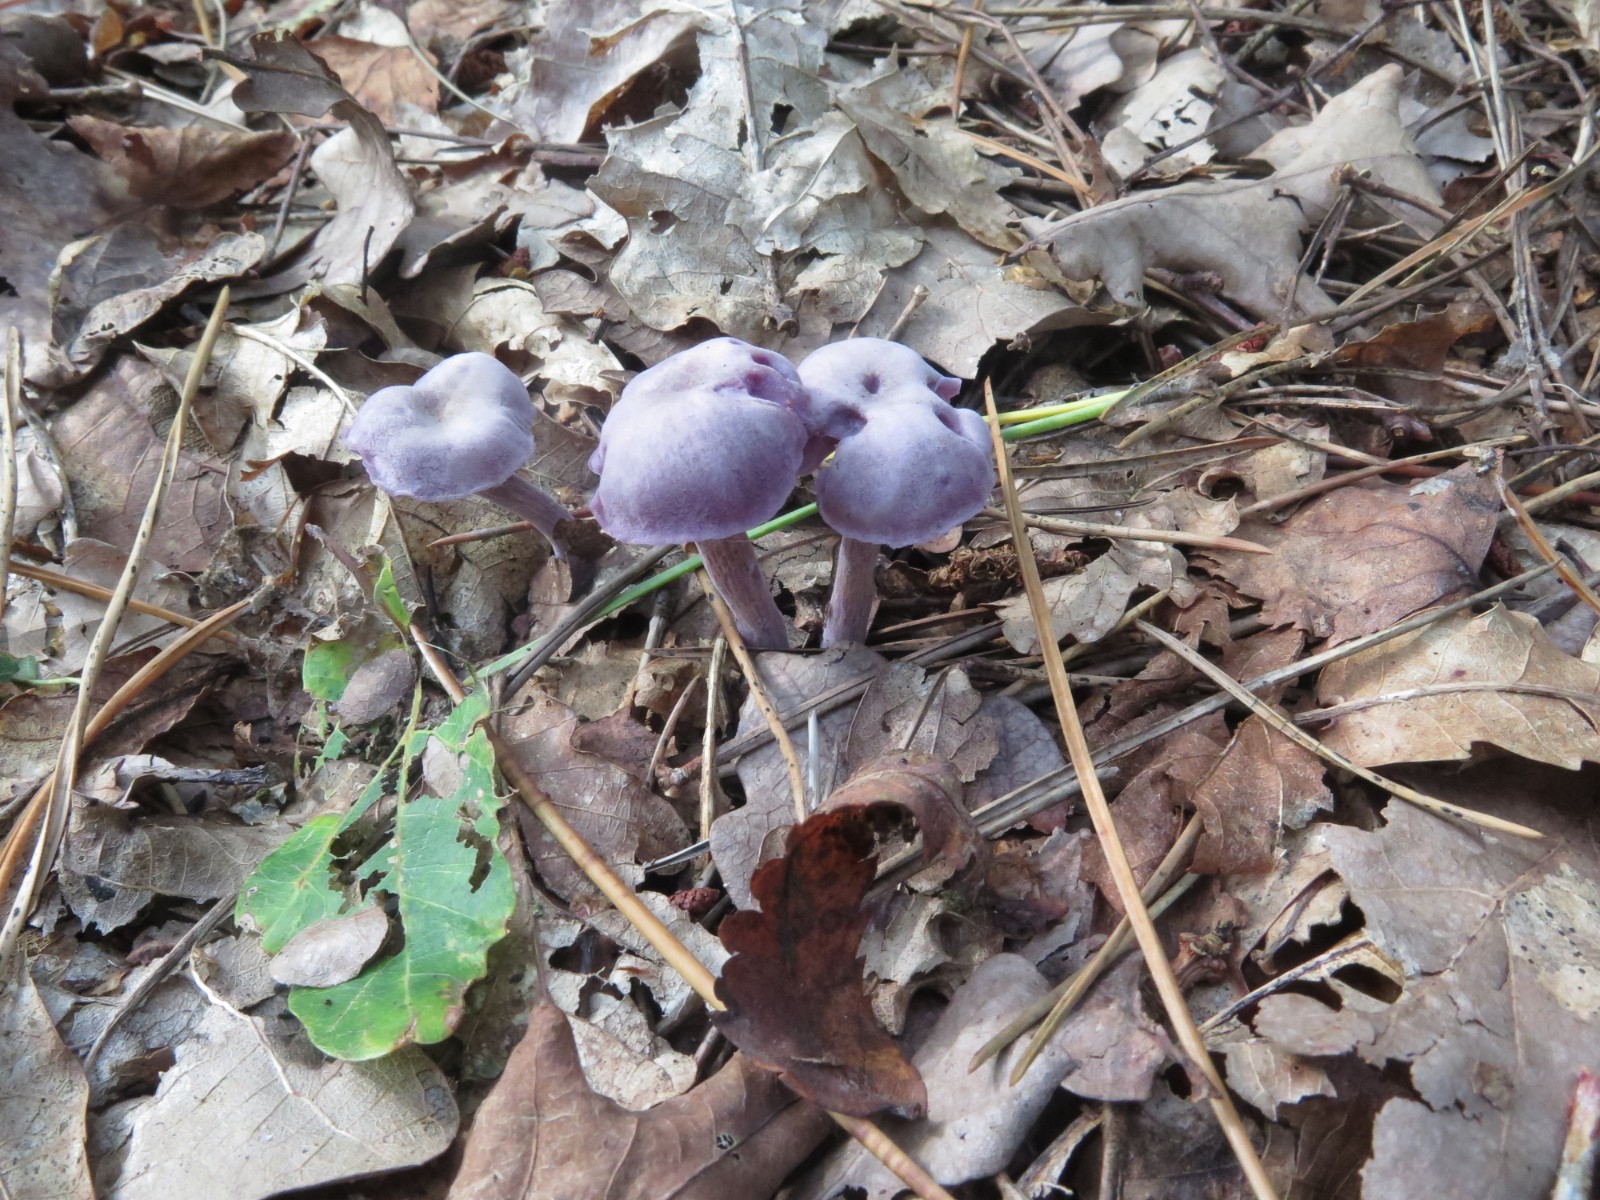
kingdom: Fungi
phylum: Basidiomycota
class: Agaricomycetes
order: Agaricales
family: Hydnangiaceae
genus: Laccaria
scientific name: Laccaria amethystina
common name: violet ametysthat
